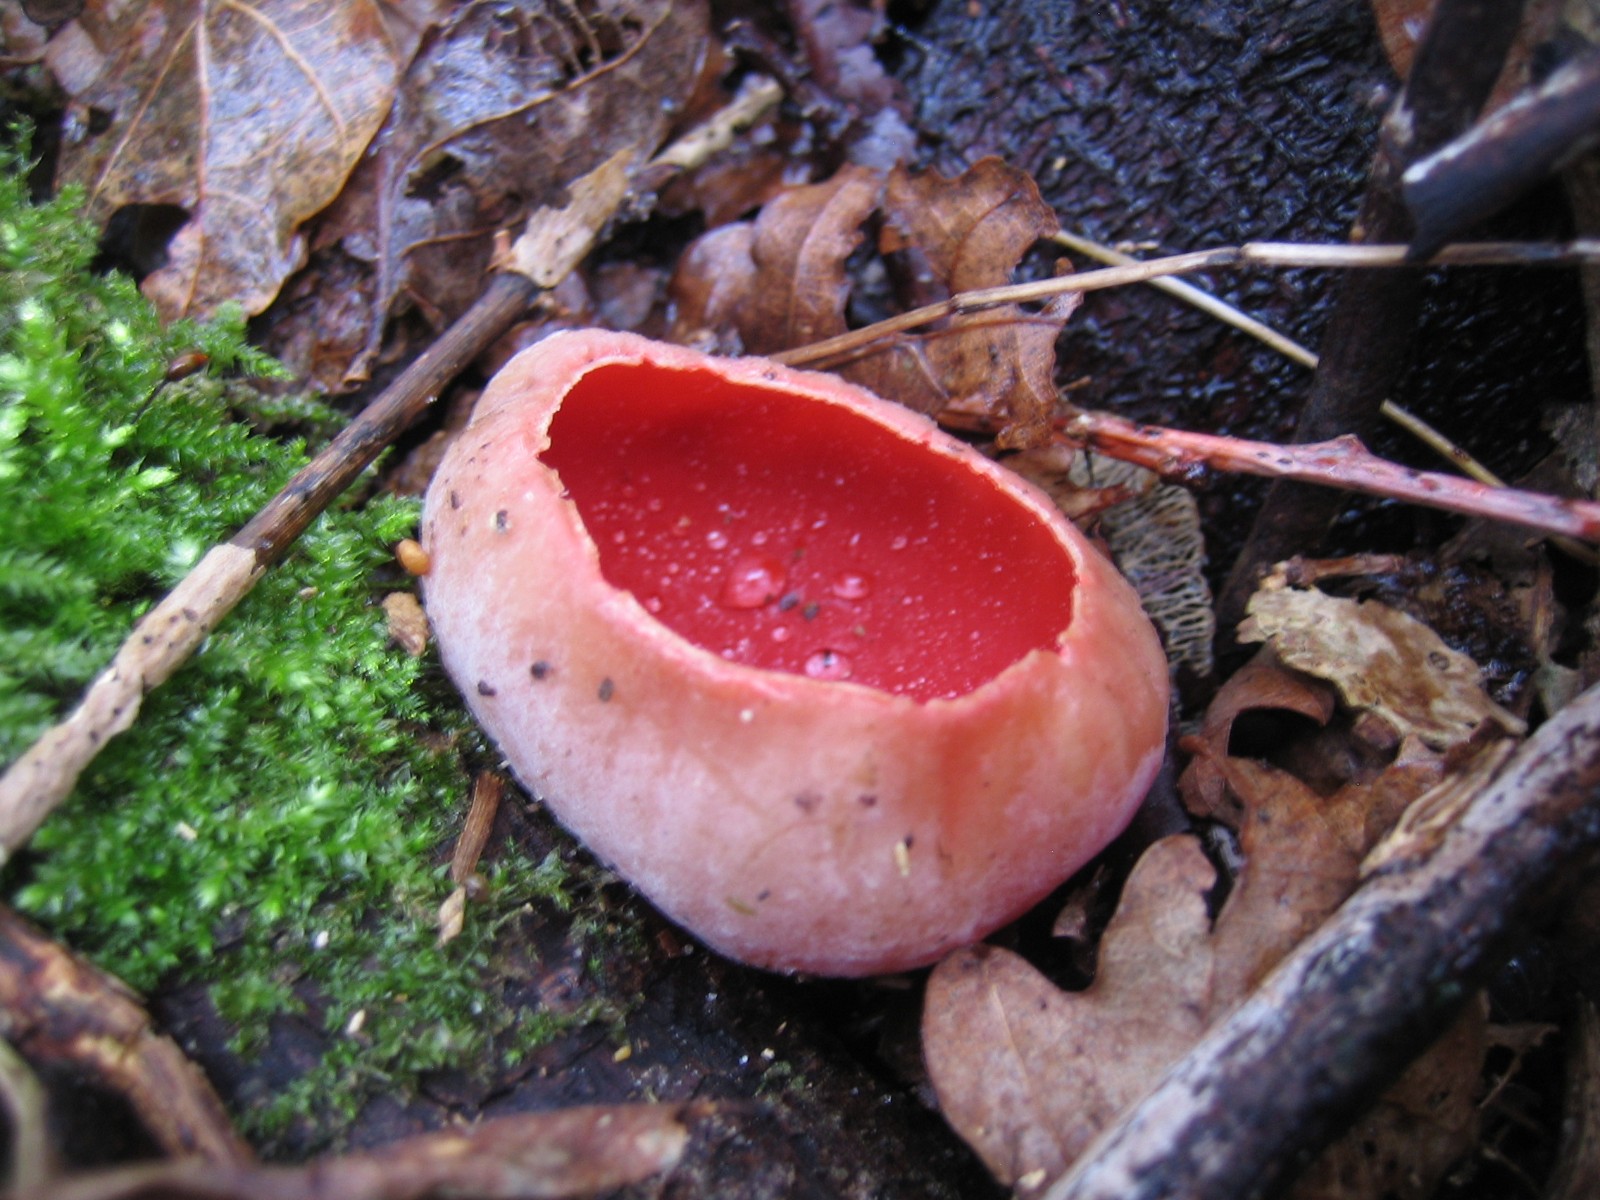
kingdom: Fungi
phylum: Ascomycota
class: Pezizomycetes
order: Pezizales
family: Sarcoscyphaceae
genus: Sarcoscypha
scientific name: Sarcoscypha austriaca
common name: krølhåret pragtbæger
